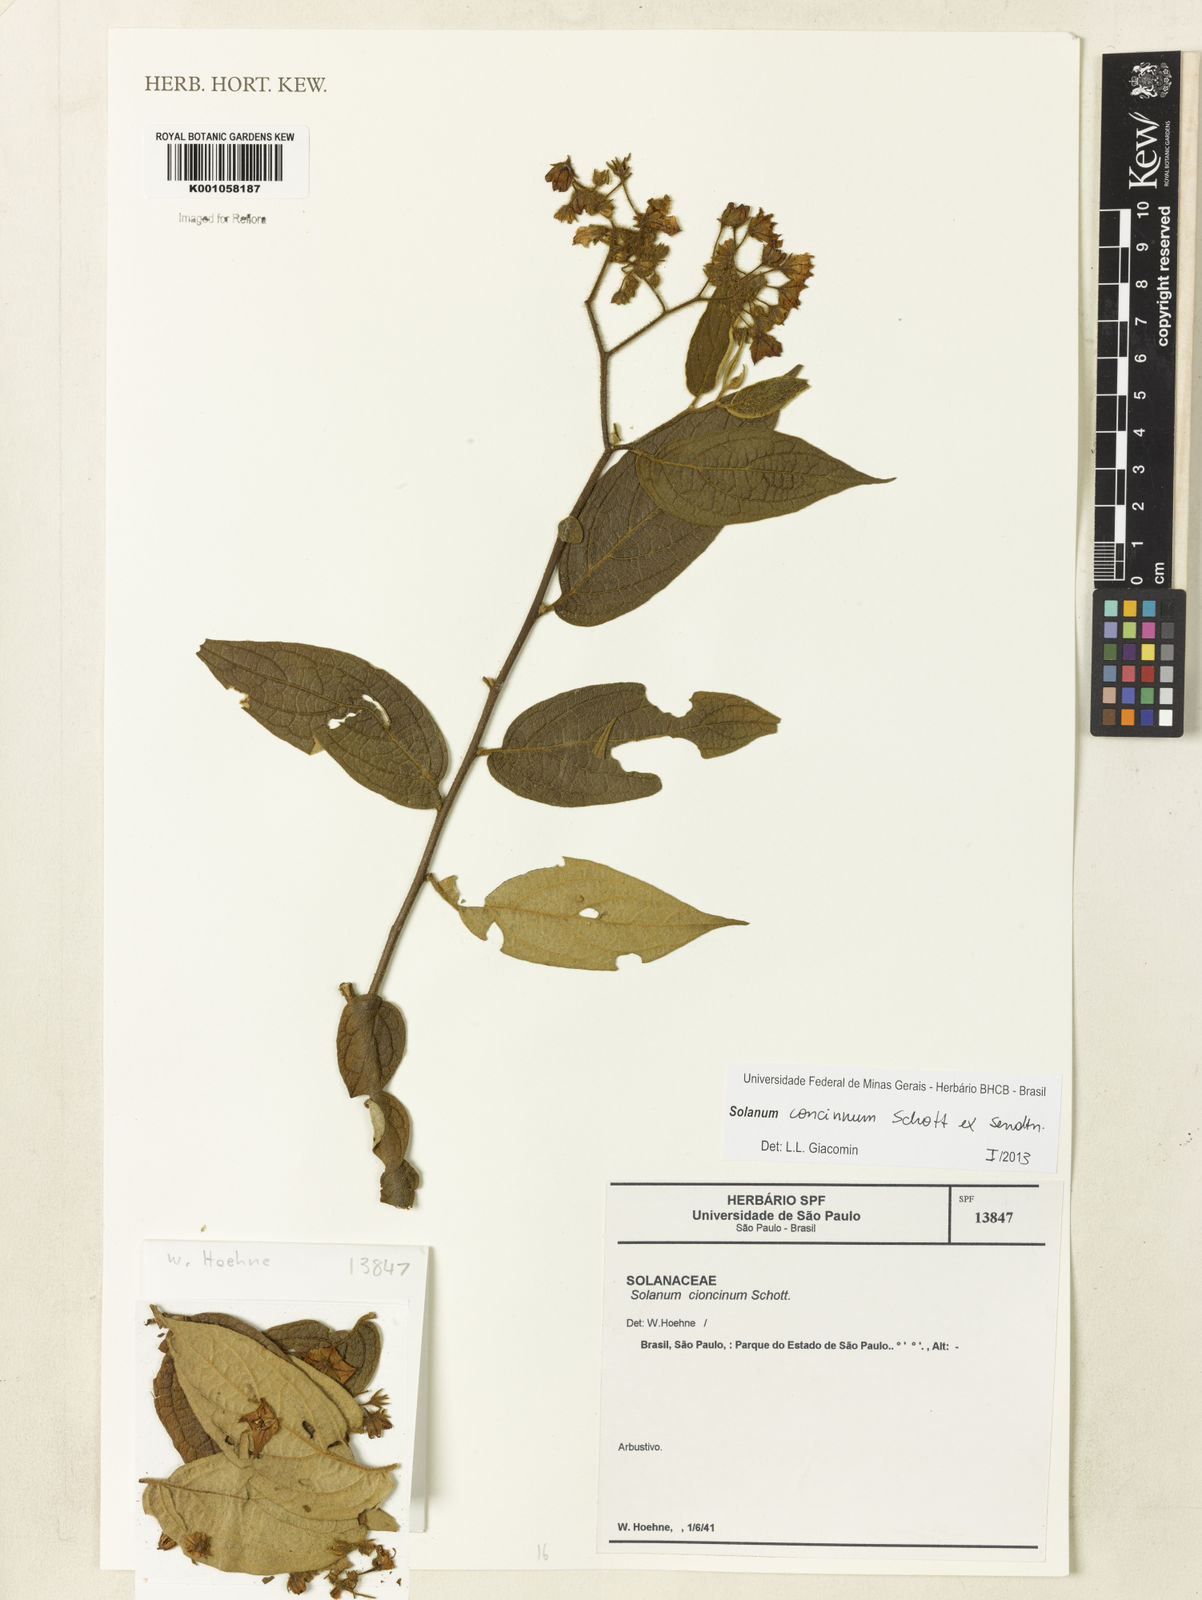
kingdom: Plantae
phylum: Tracheophyta
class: Magnoliopsida
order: Solanales
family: Solanaceae
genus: Solanum
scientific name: Solanum concinnum
